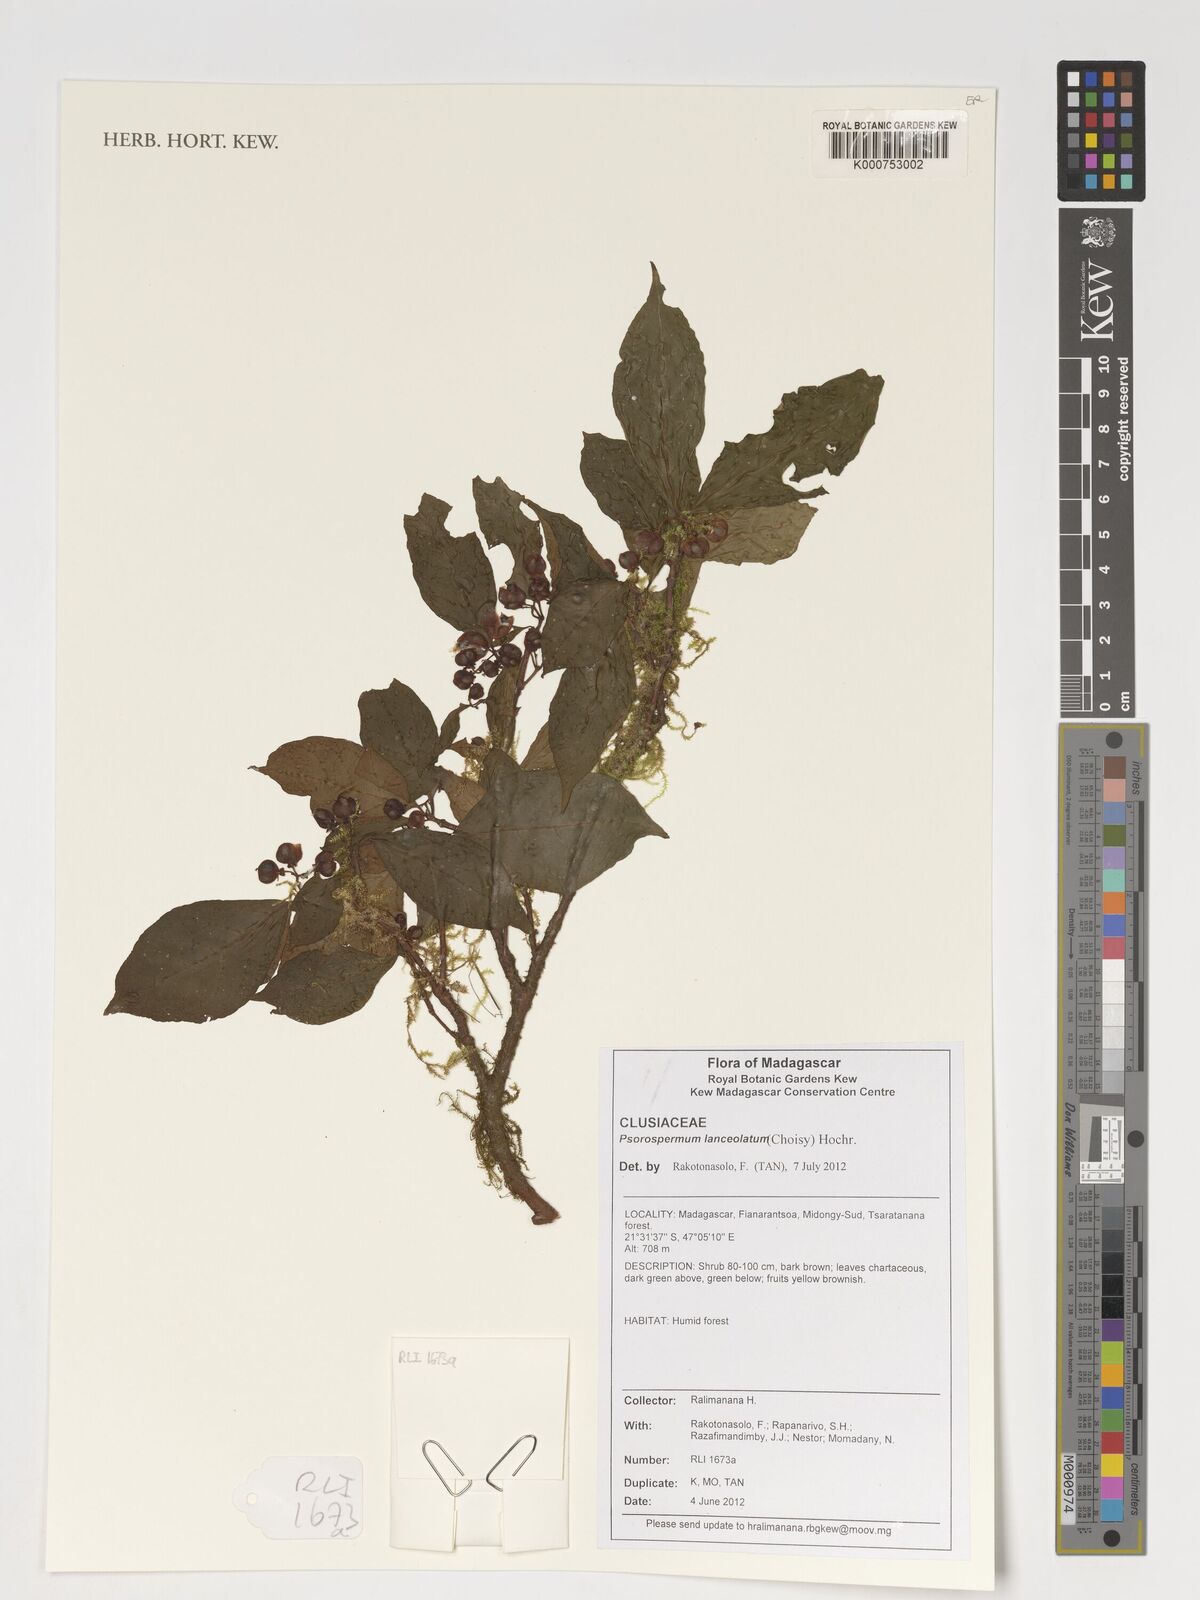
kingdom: Plantae
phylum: Tracheophyta
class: Magnoliopsida
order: Malpighiales
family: Hypericaceae
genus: Psorospermum
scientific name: Psorospermum lanceolatum
